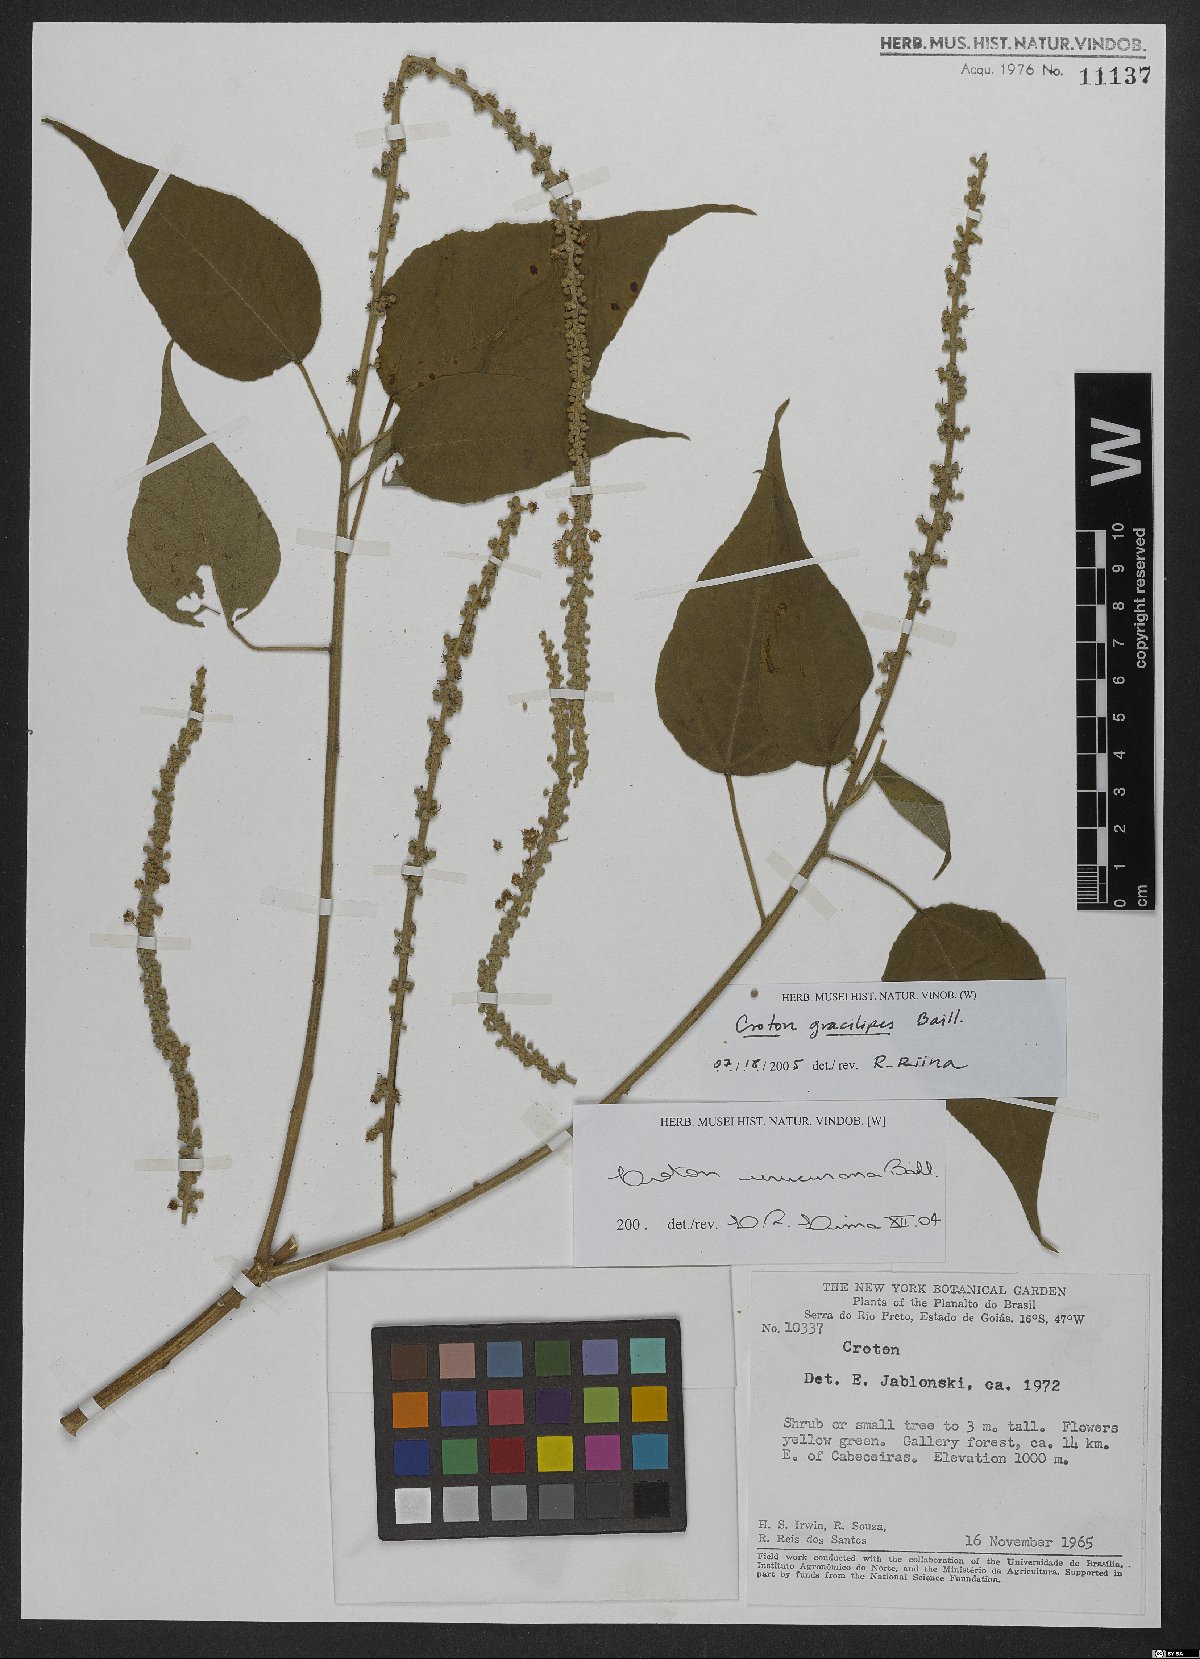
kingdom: Plantae
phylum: Tracheophyta
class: Magnoliopsida
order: Malpighiales
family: Euphorbiaceae
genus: Croton
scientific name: Croton gracilipes
